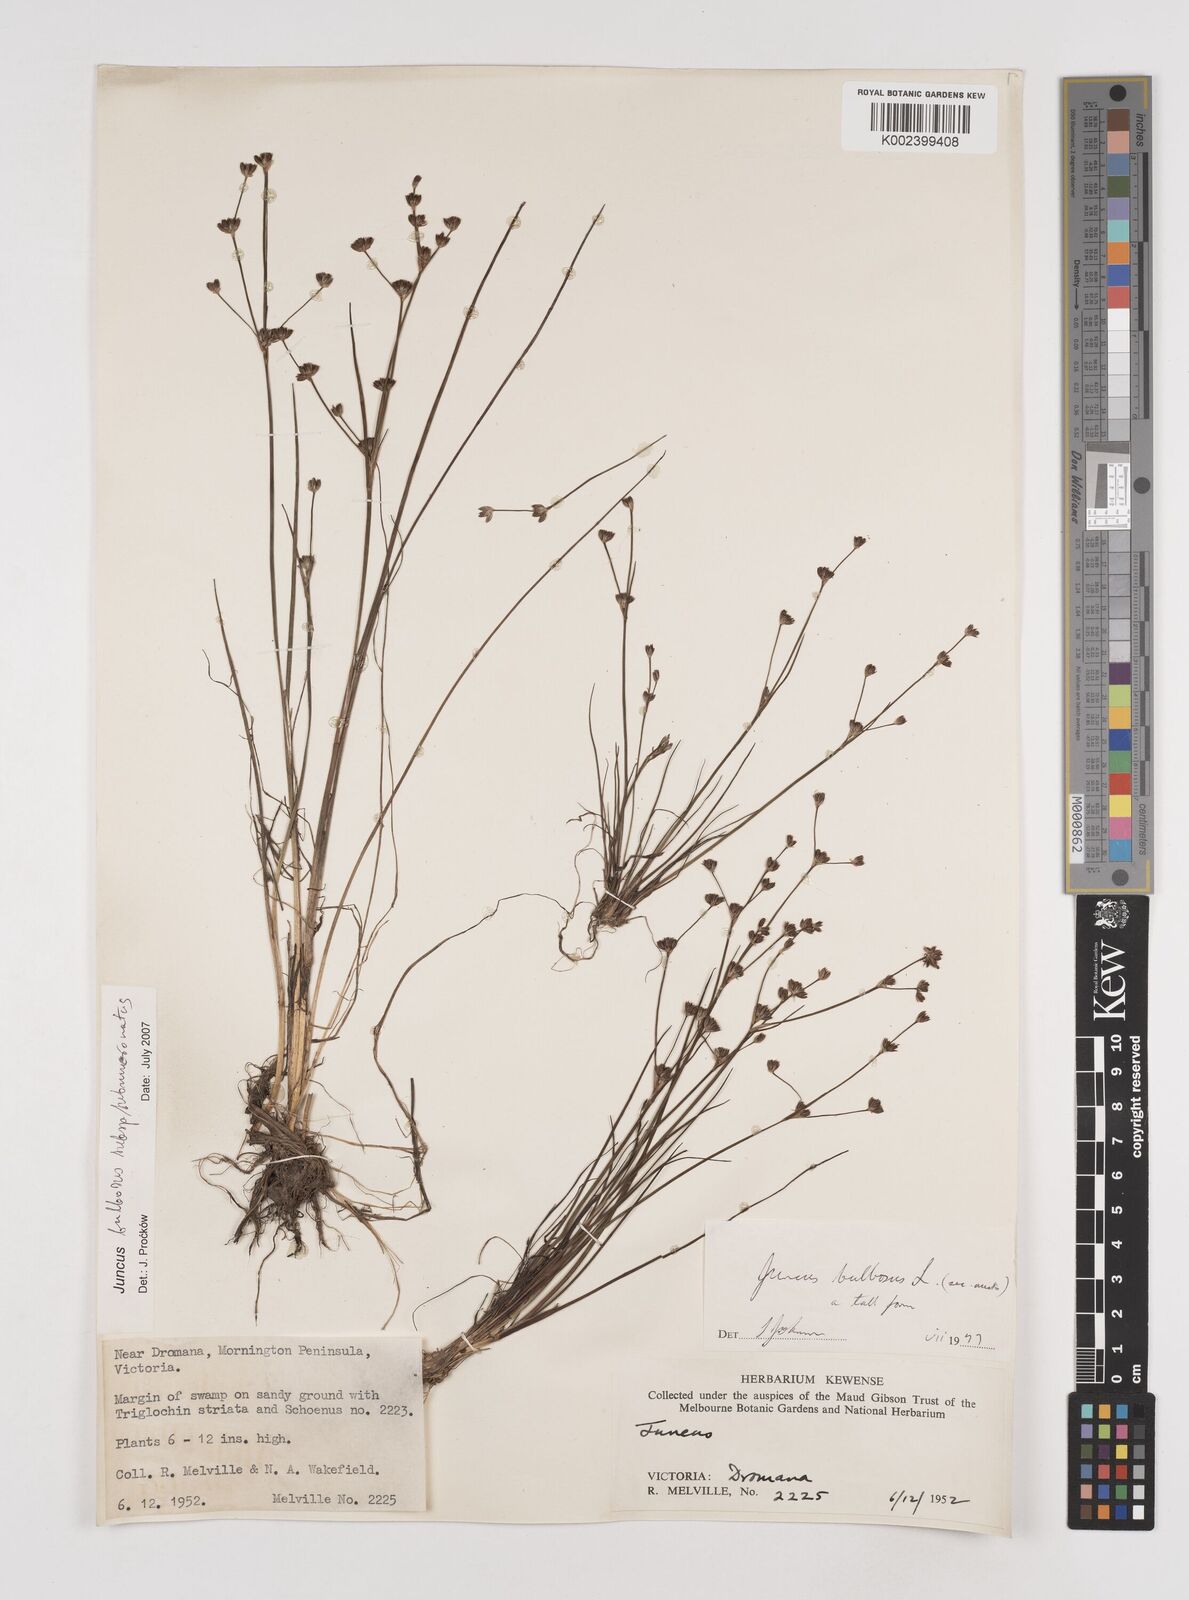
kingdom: Plantae
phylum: Tracheophyta
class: Liliopsida
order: Poales
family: Juncaceae
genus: Juncus
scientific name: Juncus bulbosus
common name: Bulbous rush
